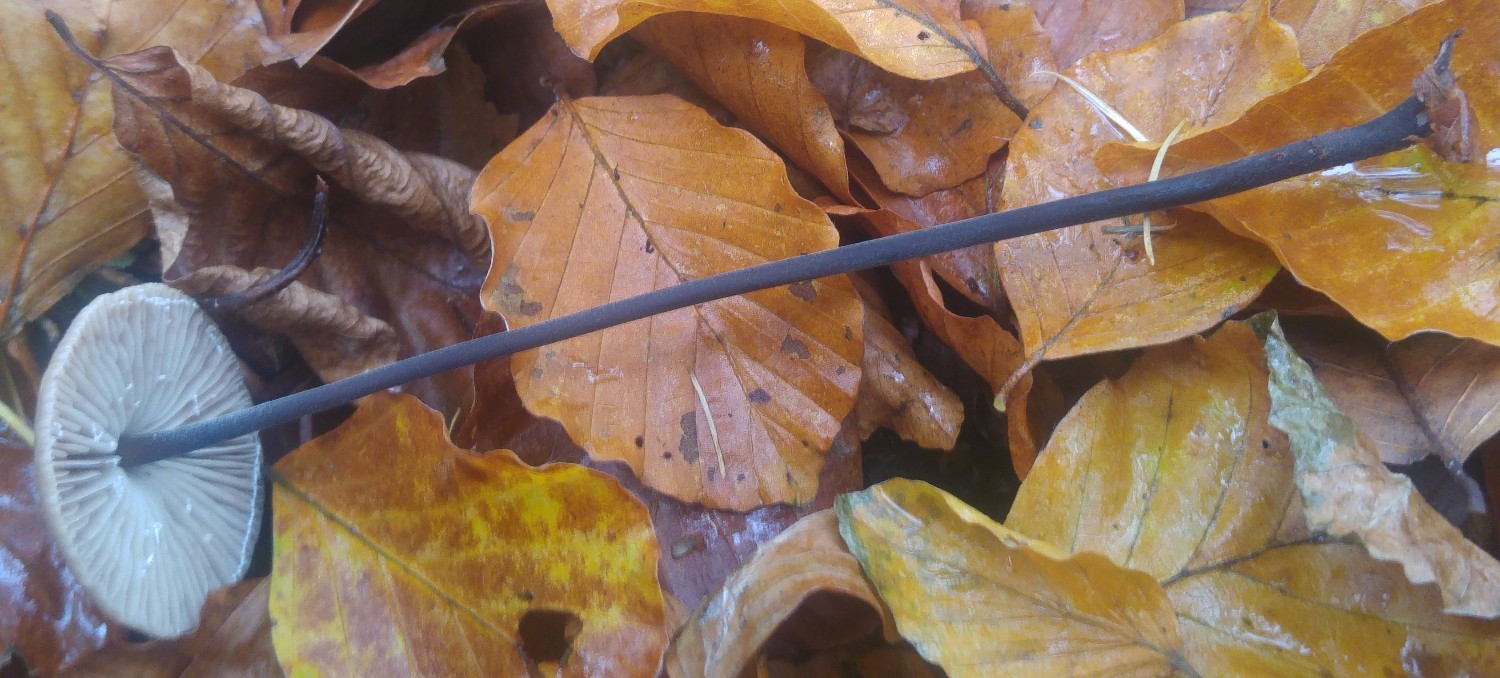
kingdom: Fungi
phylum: Basidiomycota
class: Agaricomycetes
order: Agaricales
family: Omphalotaceae
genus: Mycetinis
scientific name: Mycetinis alliaceus
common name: stor løghat
